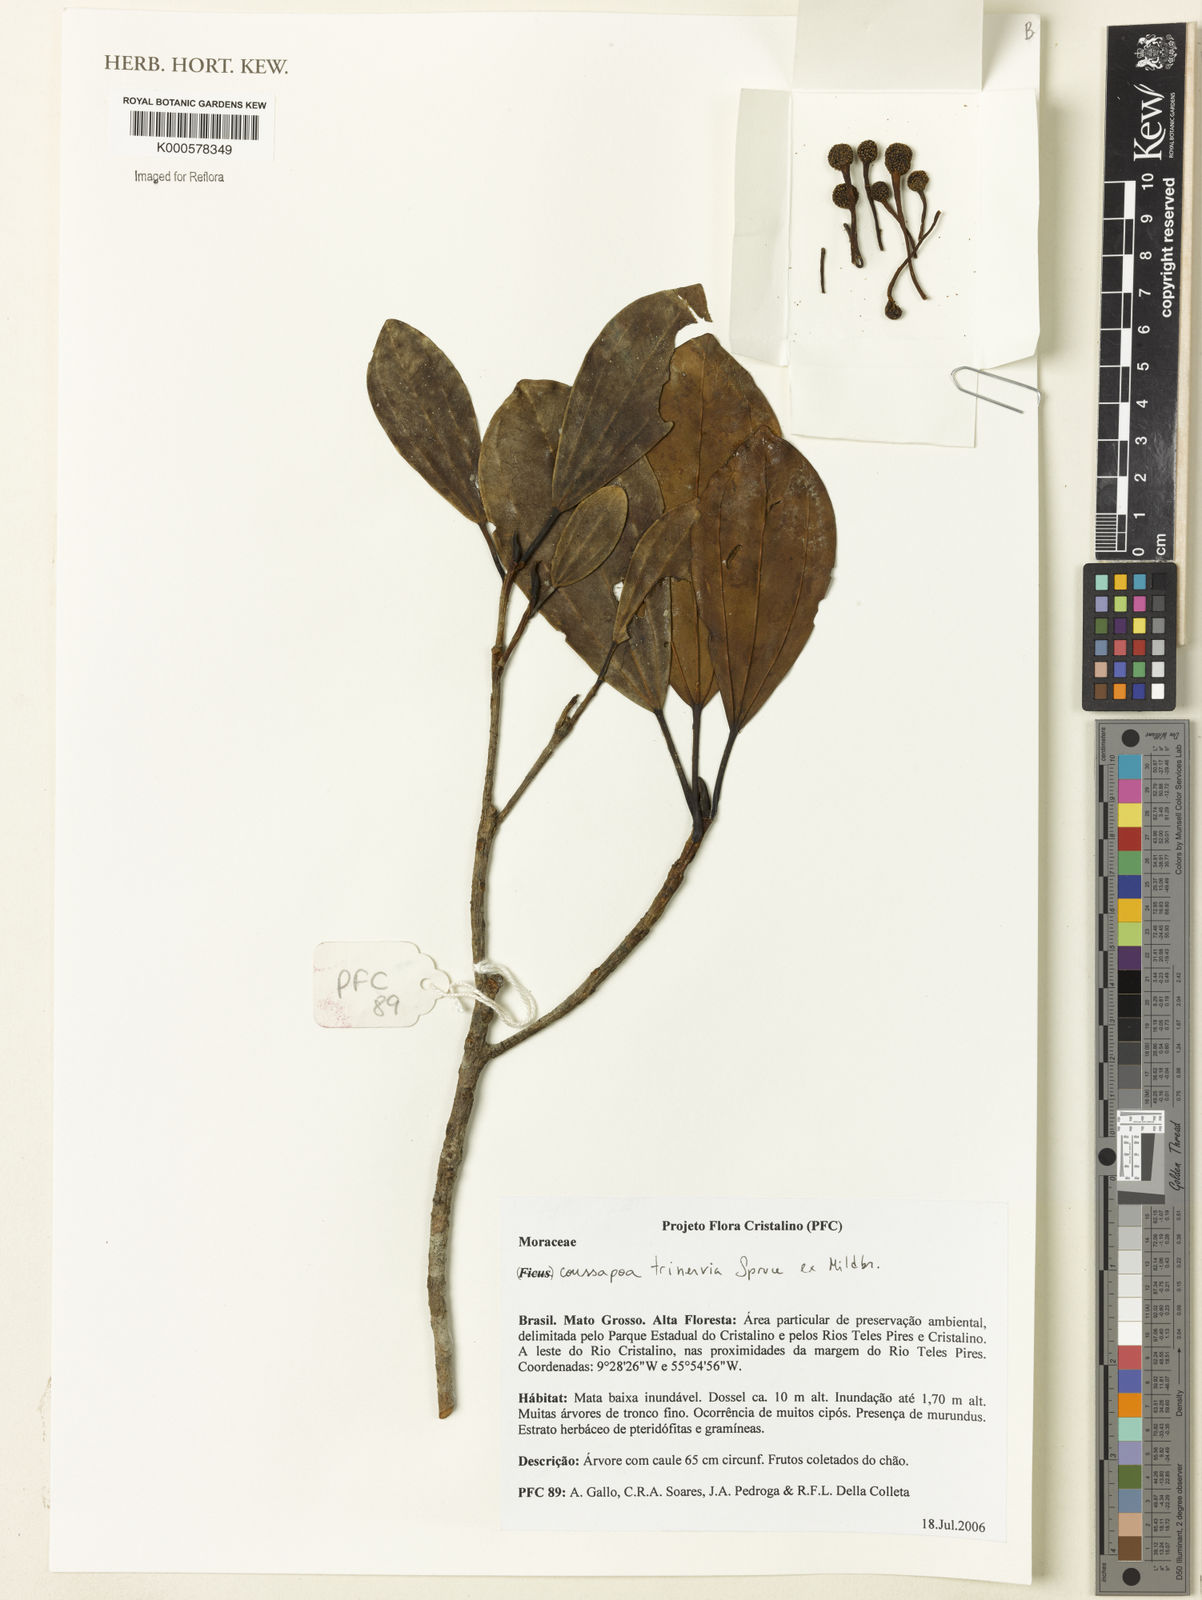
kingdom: Plantae
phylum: Tracheophyta
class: Magnoliopsida
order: Rosales
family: Urticaceae
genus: Coussapoa
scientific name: Coussapoa trinervia
